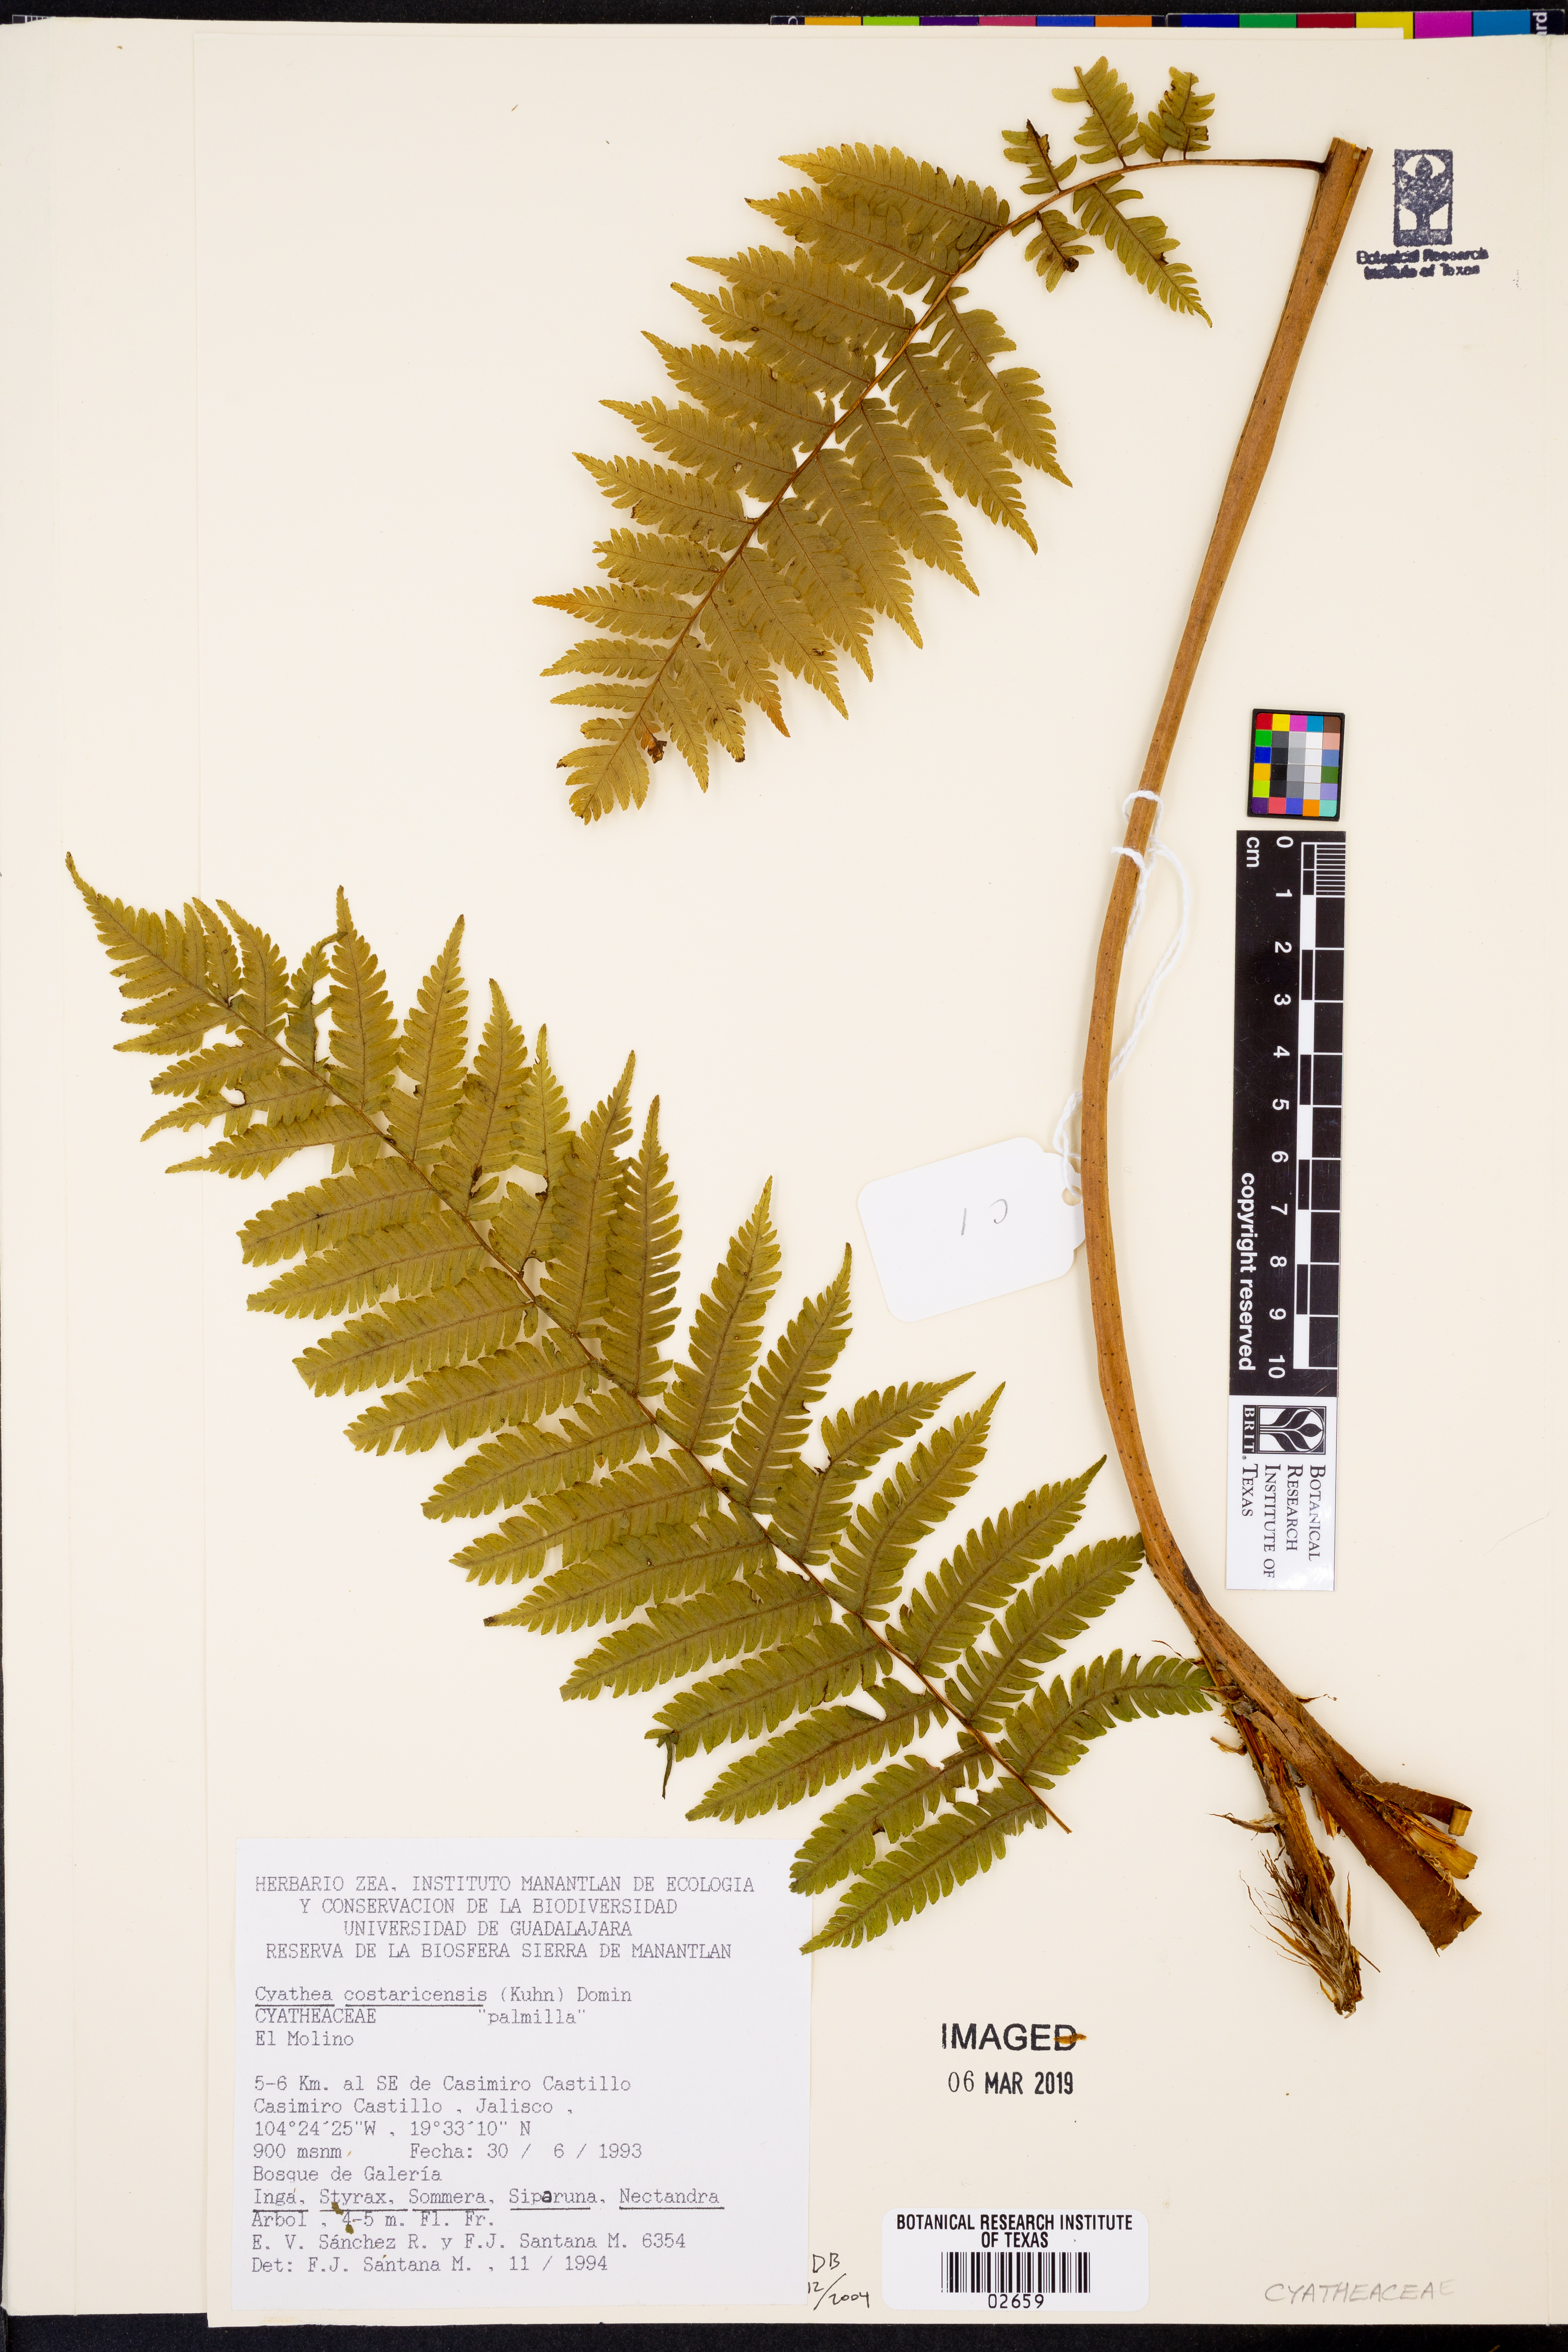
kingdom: Plantae
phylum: Tracheophyta
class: Polypodiopsida
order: Cyatheales
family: Cyatheaceae
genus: Cyathea
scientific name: Cyathea costaricensis
